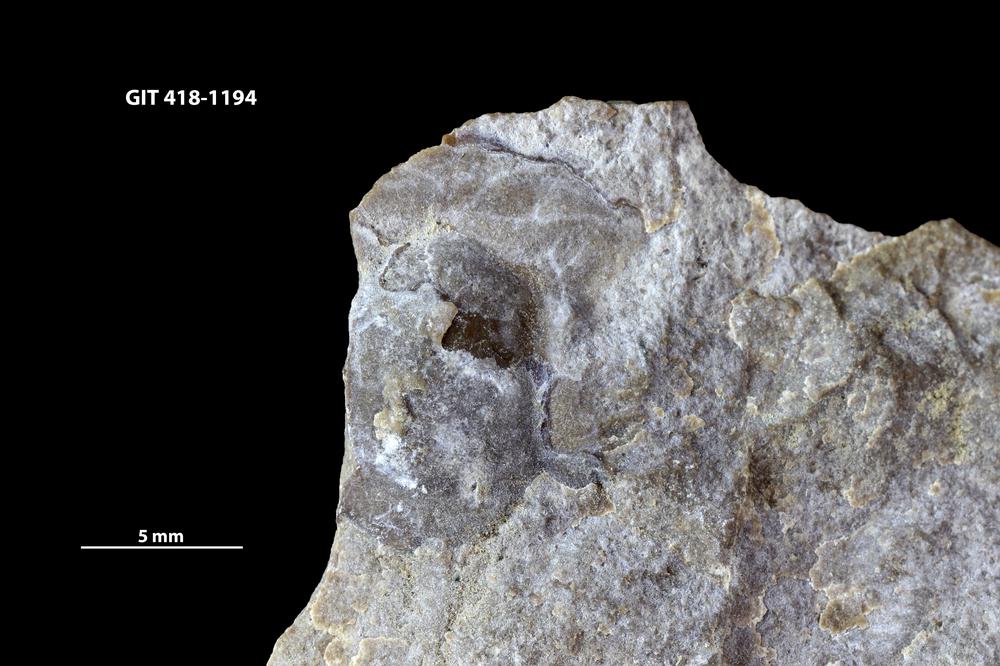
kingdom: Animalia
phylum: Arthropoda
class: Trilobita
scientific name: Trilobita
